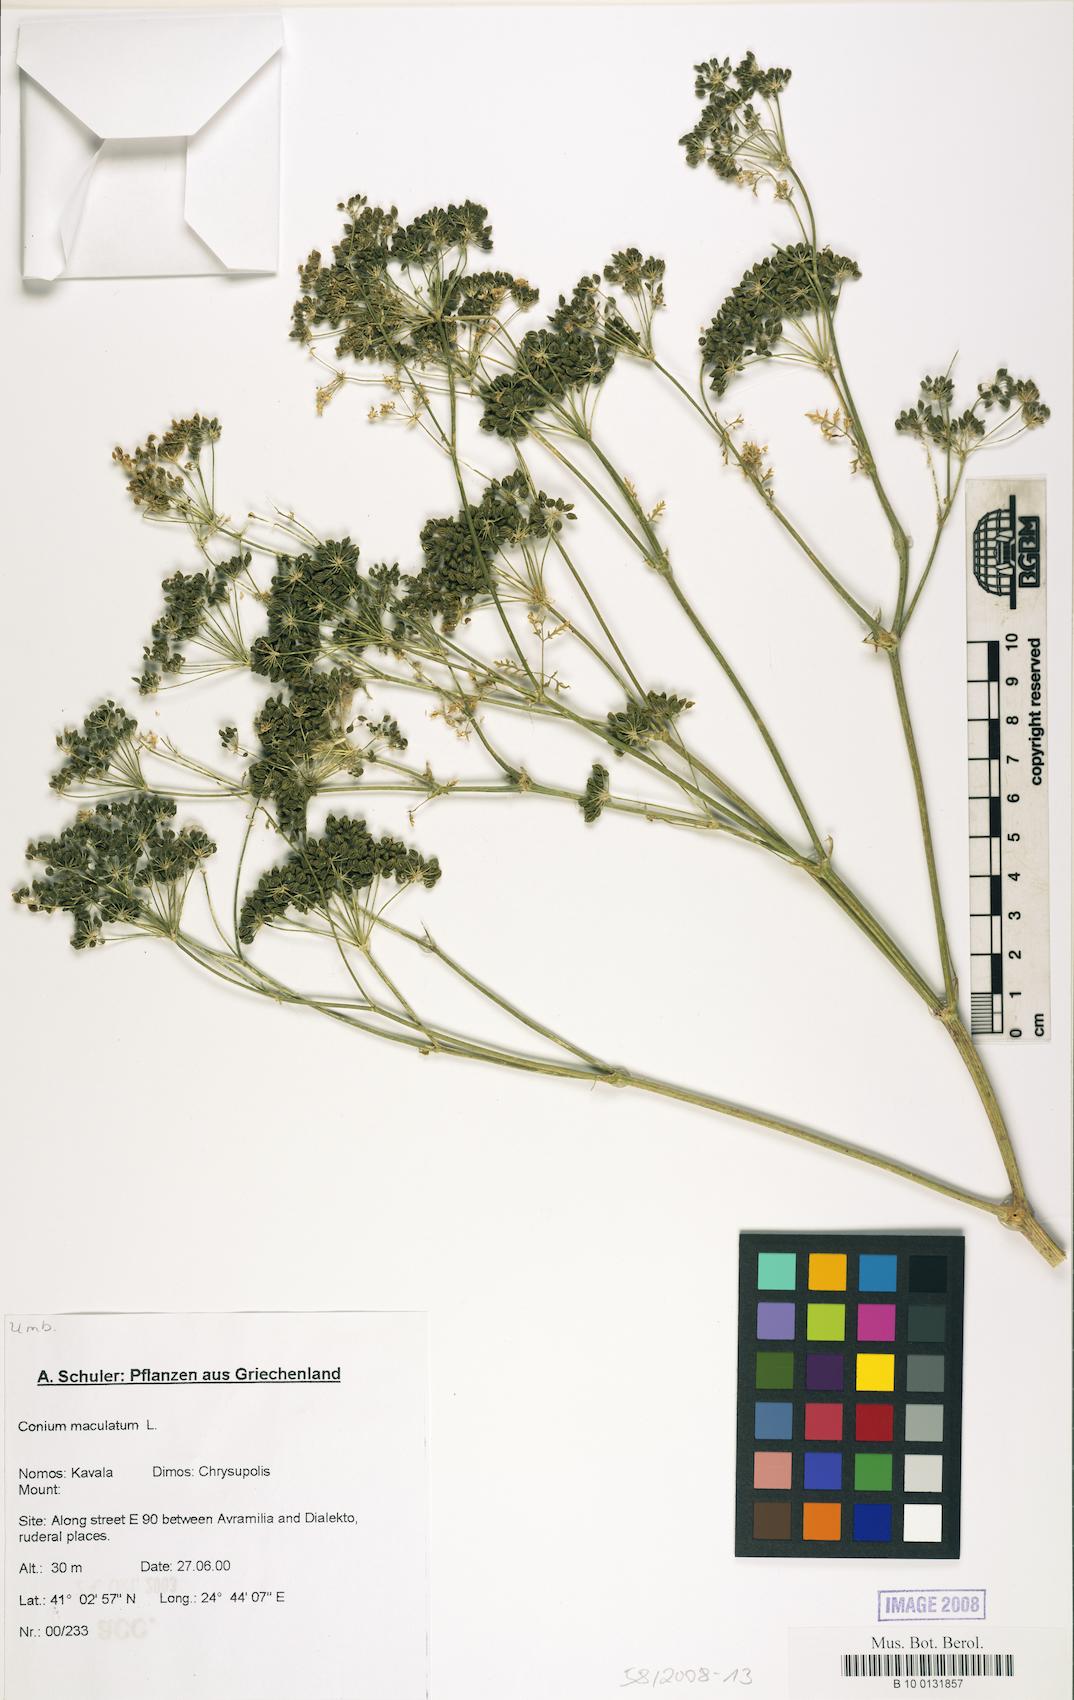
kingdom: Plantae
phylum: Tracheophyta
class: Magnoliopsida
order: Apiales
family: Apiaceae
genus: Conium
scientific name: Conium maculatum
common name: Hemlock
